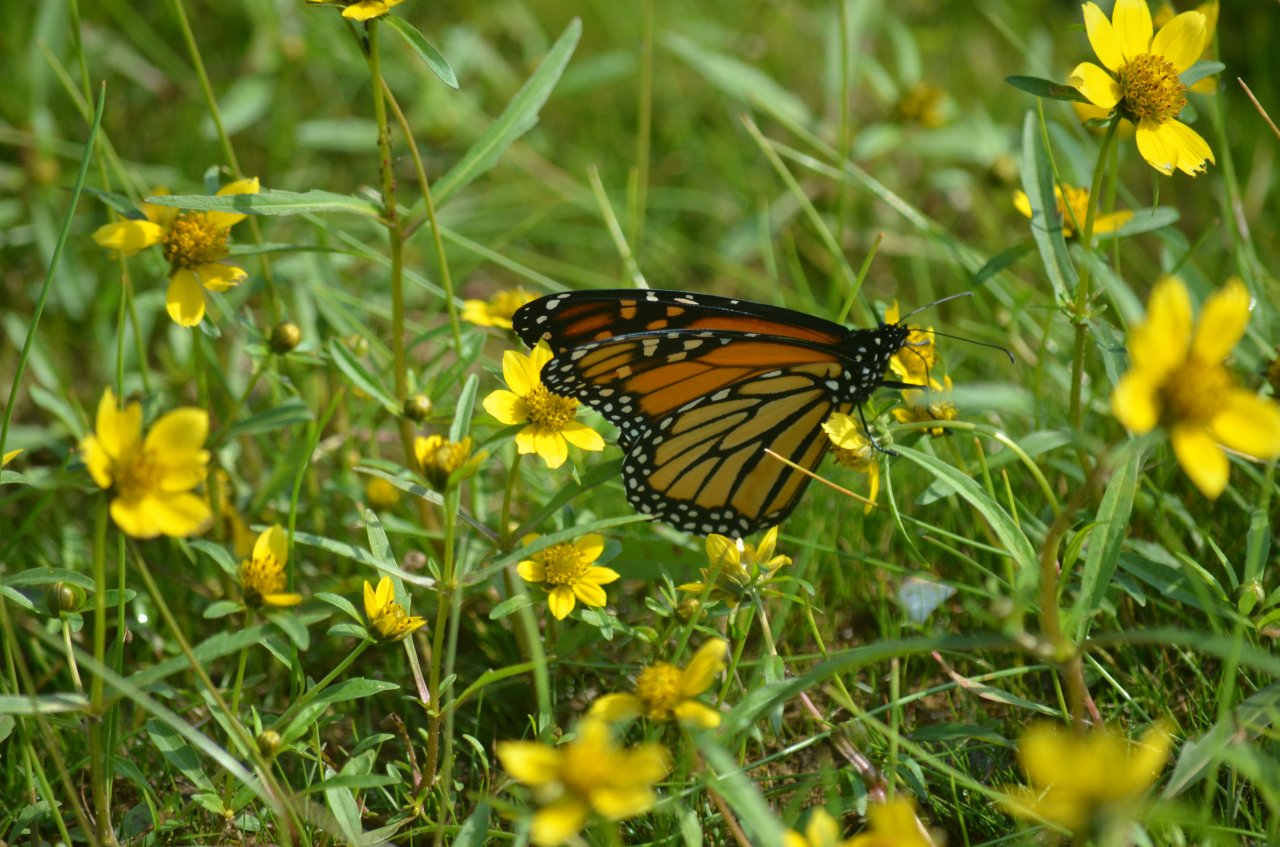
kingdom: Animalia
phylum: Arthropoda
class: Insecta
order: Lepidoptera
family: Nymphalidae
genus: Danaus
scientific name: Danaus plexippus
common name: Monarch
